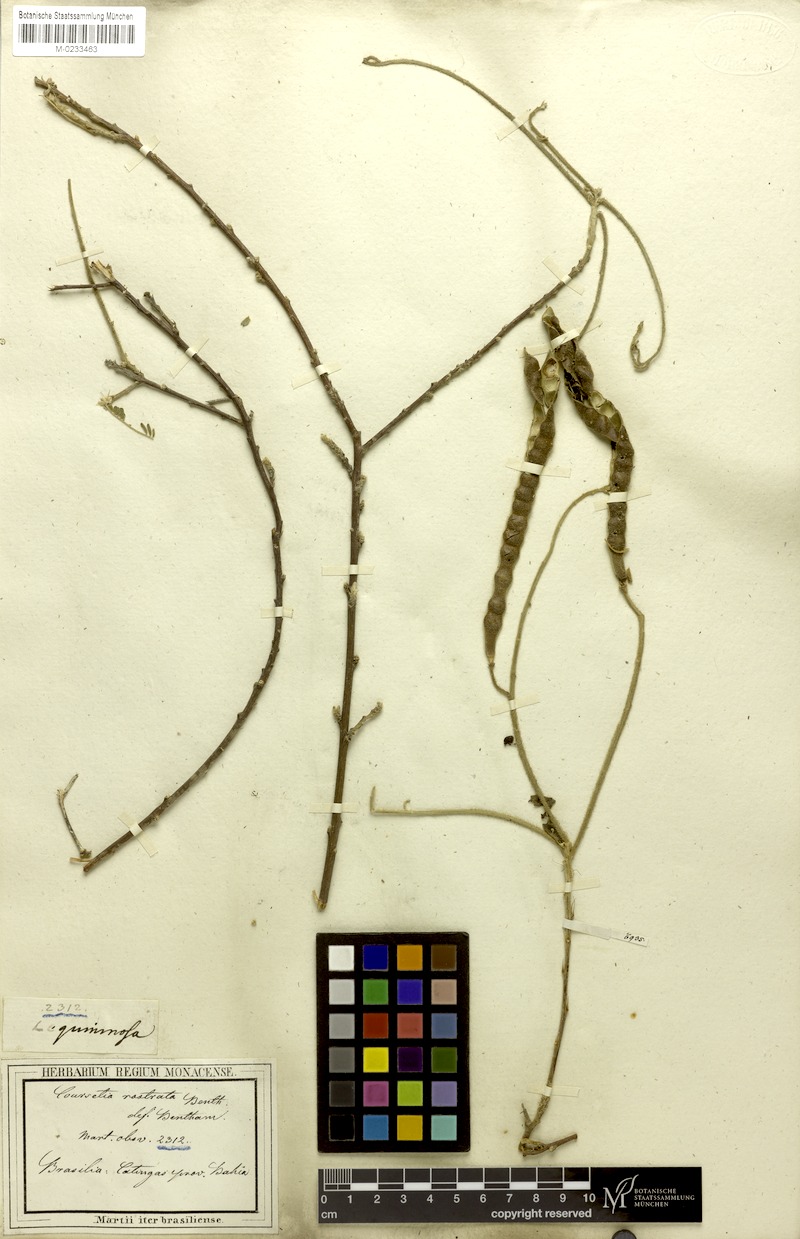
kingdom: Plantae
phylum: Tracheophyta
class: Magnoliopsida
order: Fabales
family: Fabaceae
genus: Coursetia
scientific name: Coursetia rostrata
